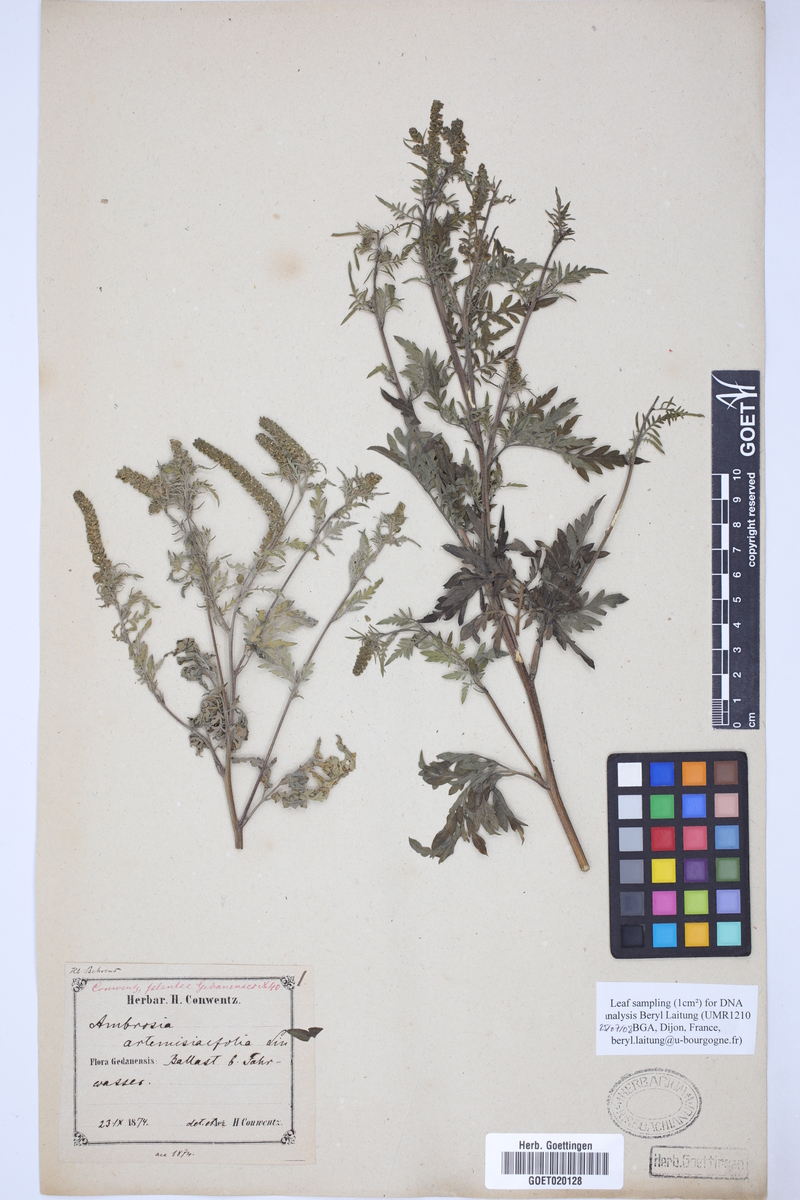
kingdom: Plantae
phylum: Tracheophyta
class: Magnoliopsida
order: Asterales
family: Asteraceae
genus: Ambrosia
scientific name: Ambrosia artemisiifolia
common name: Annual ragweed
